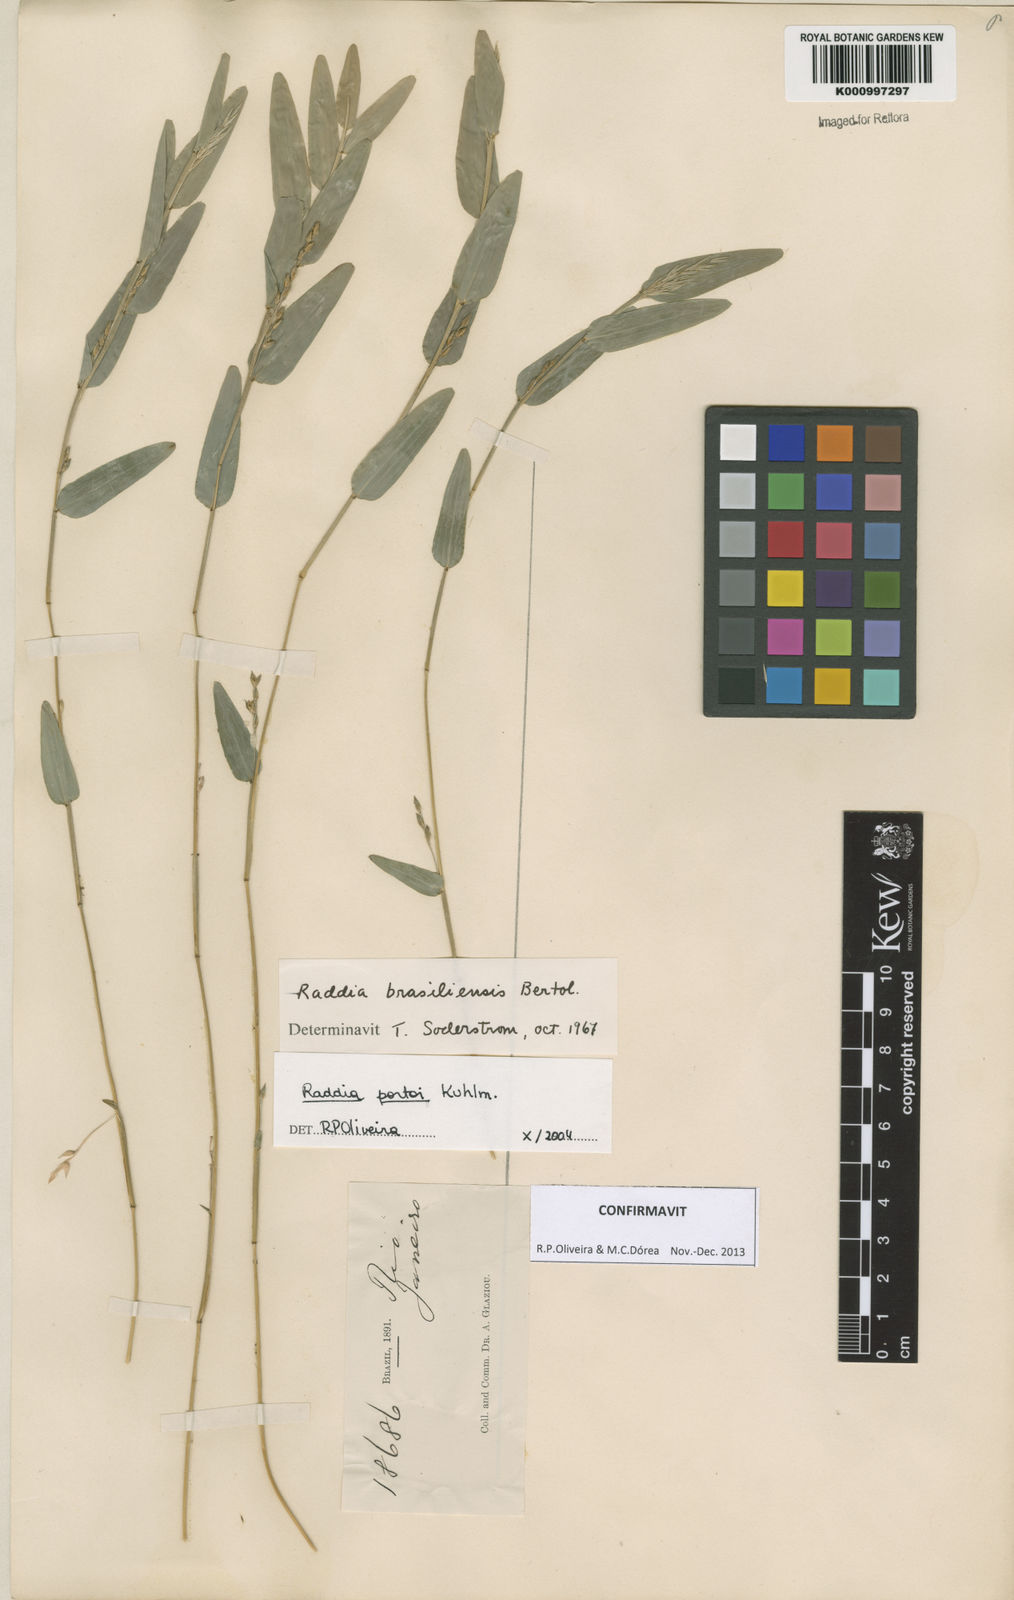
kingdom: Plantae
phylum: Tracheophyta
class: Liliopsida
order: Poales
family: Poaceae
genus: Raddia
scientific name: Raddia portoi
